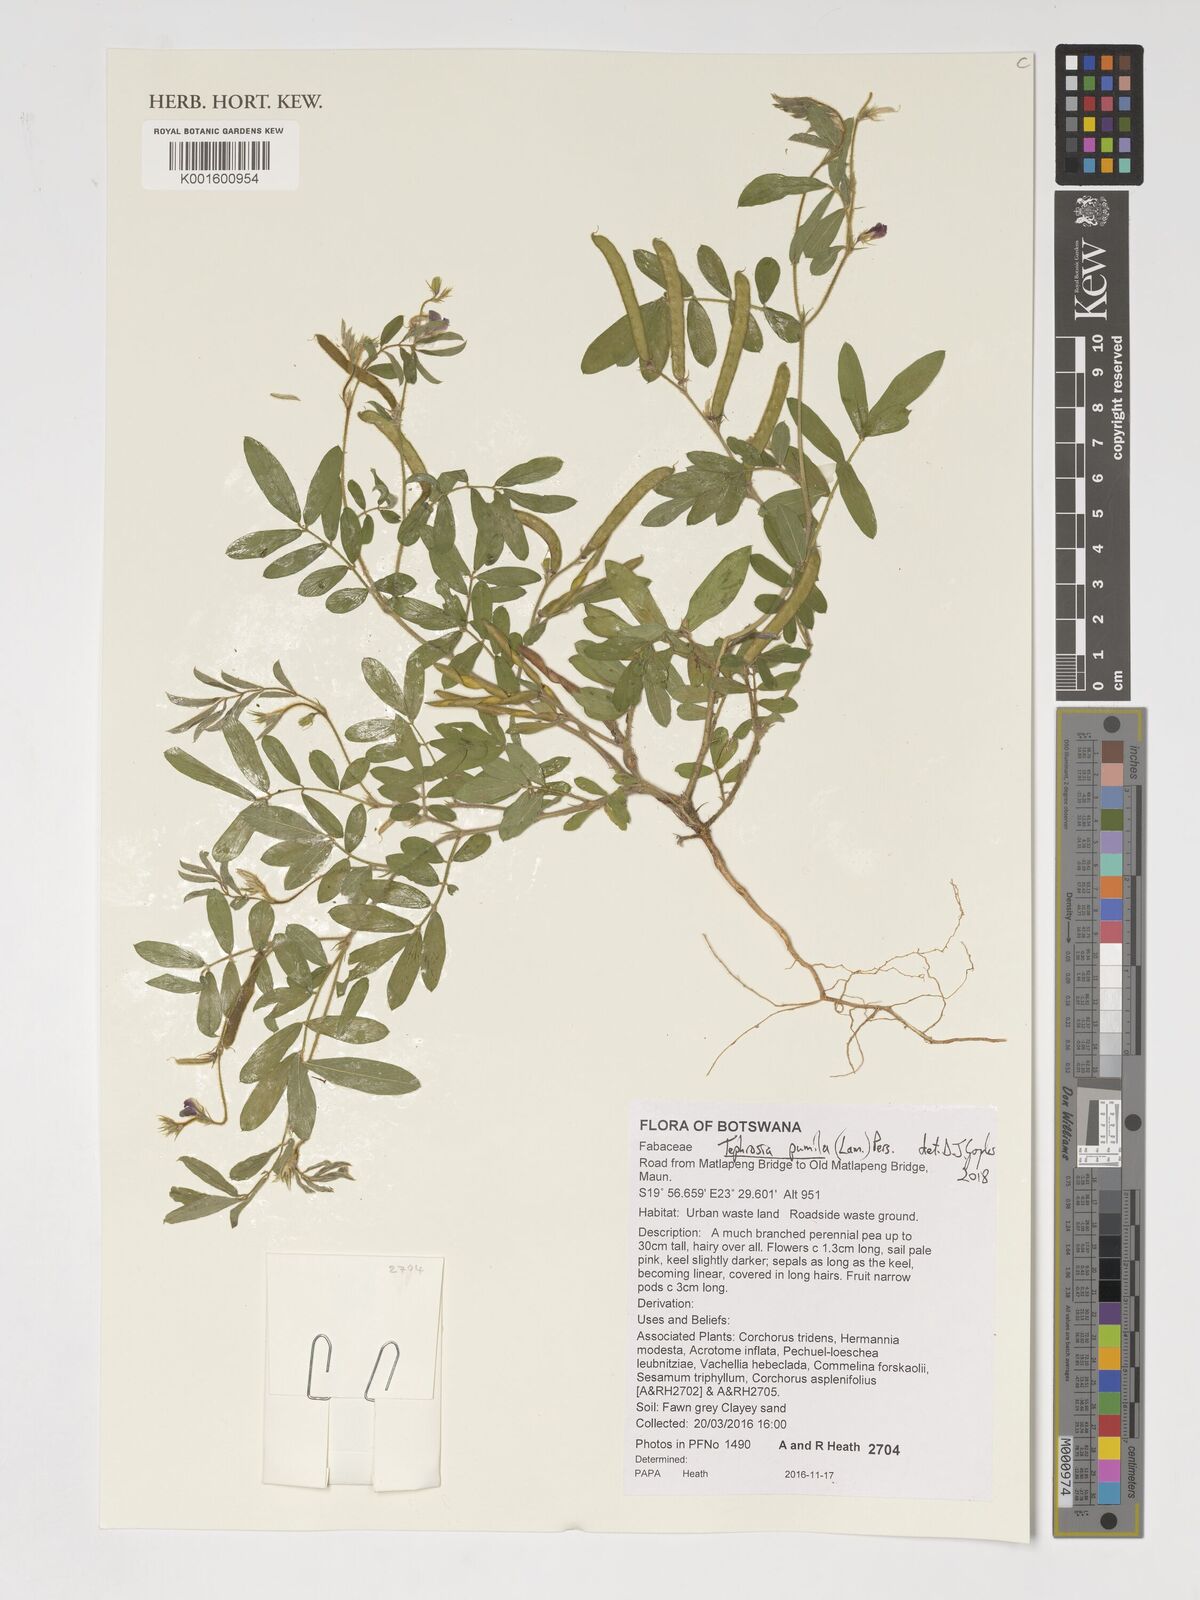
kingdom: Plantae
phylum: Tracheophyta
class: Magnoliopsida
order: Fabales
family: Fabaceae
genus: Tephrosia
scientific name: Tephrosia pumila
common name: Indigo sauvage
